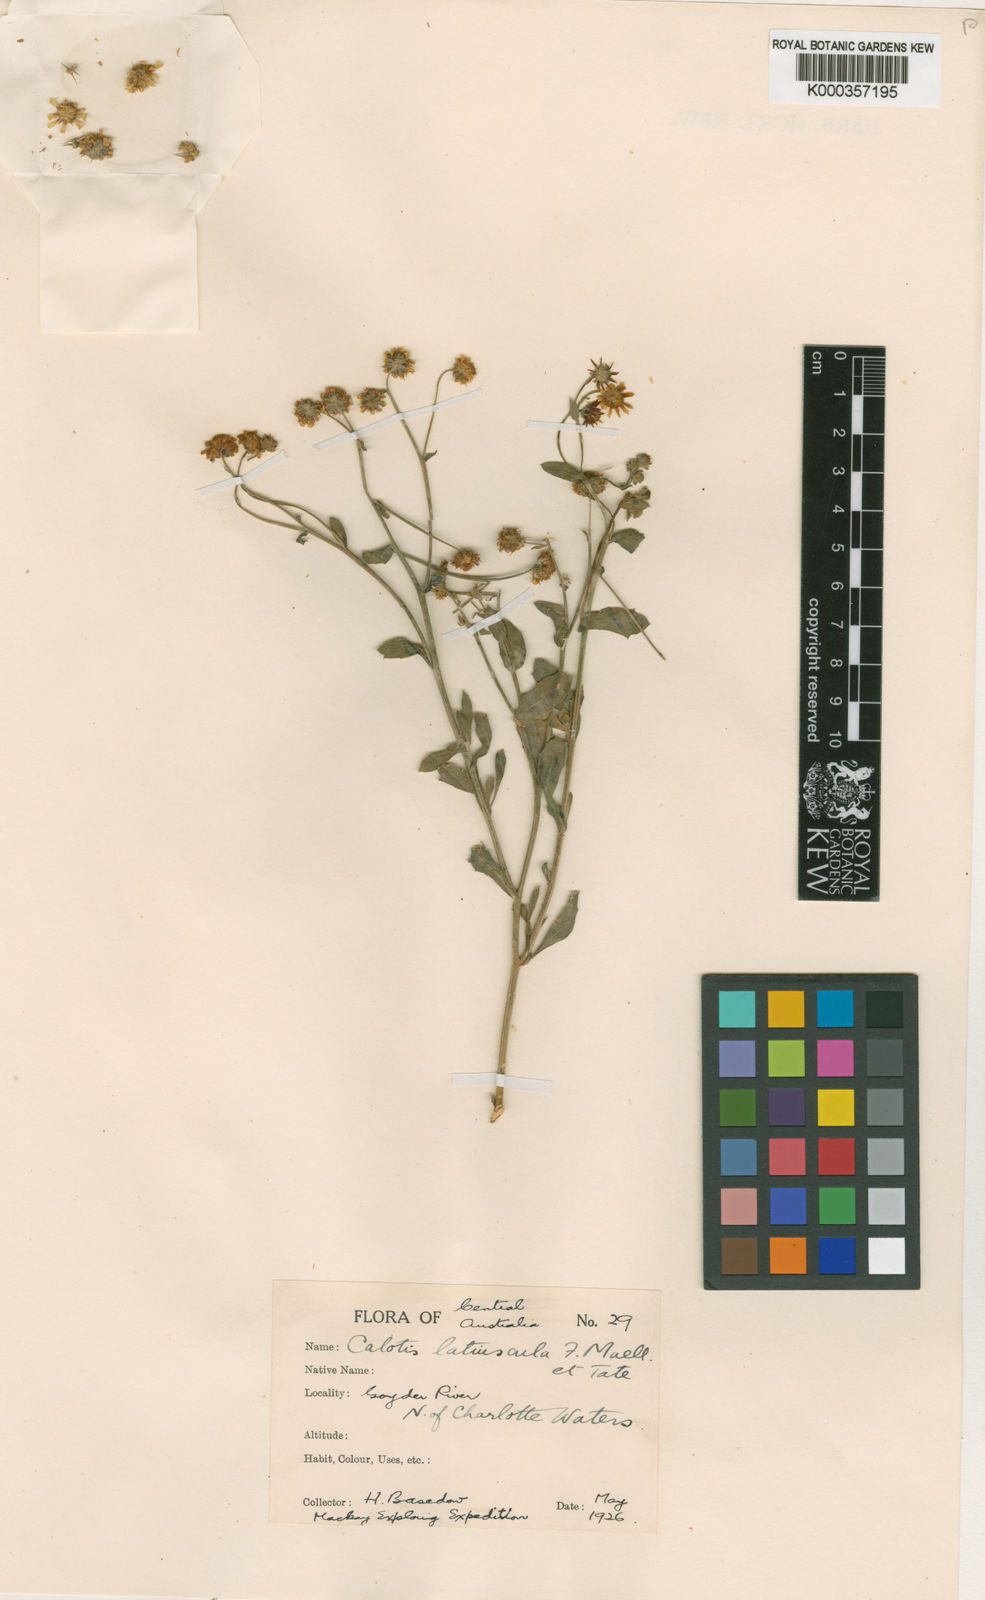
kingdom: Plantae
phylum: Tracheophyta
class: Magnoliopsida
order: Asterales
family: Asteraceae
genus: Calotis
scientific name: Calotis latiuscula
